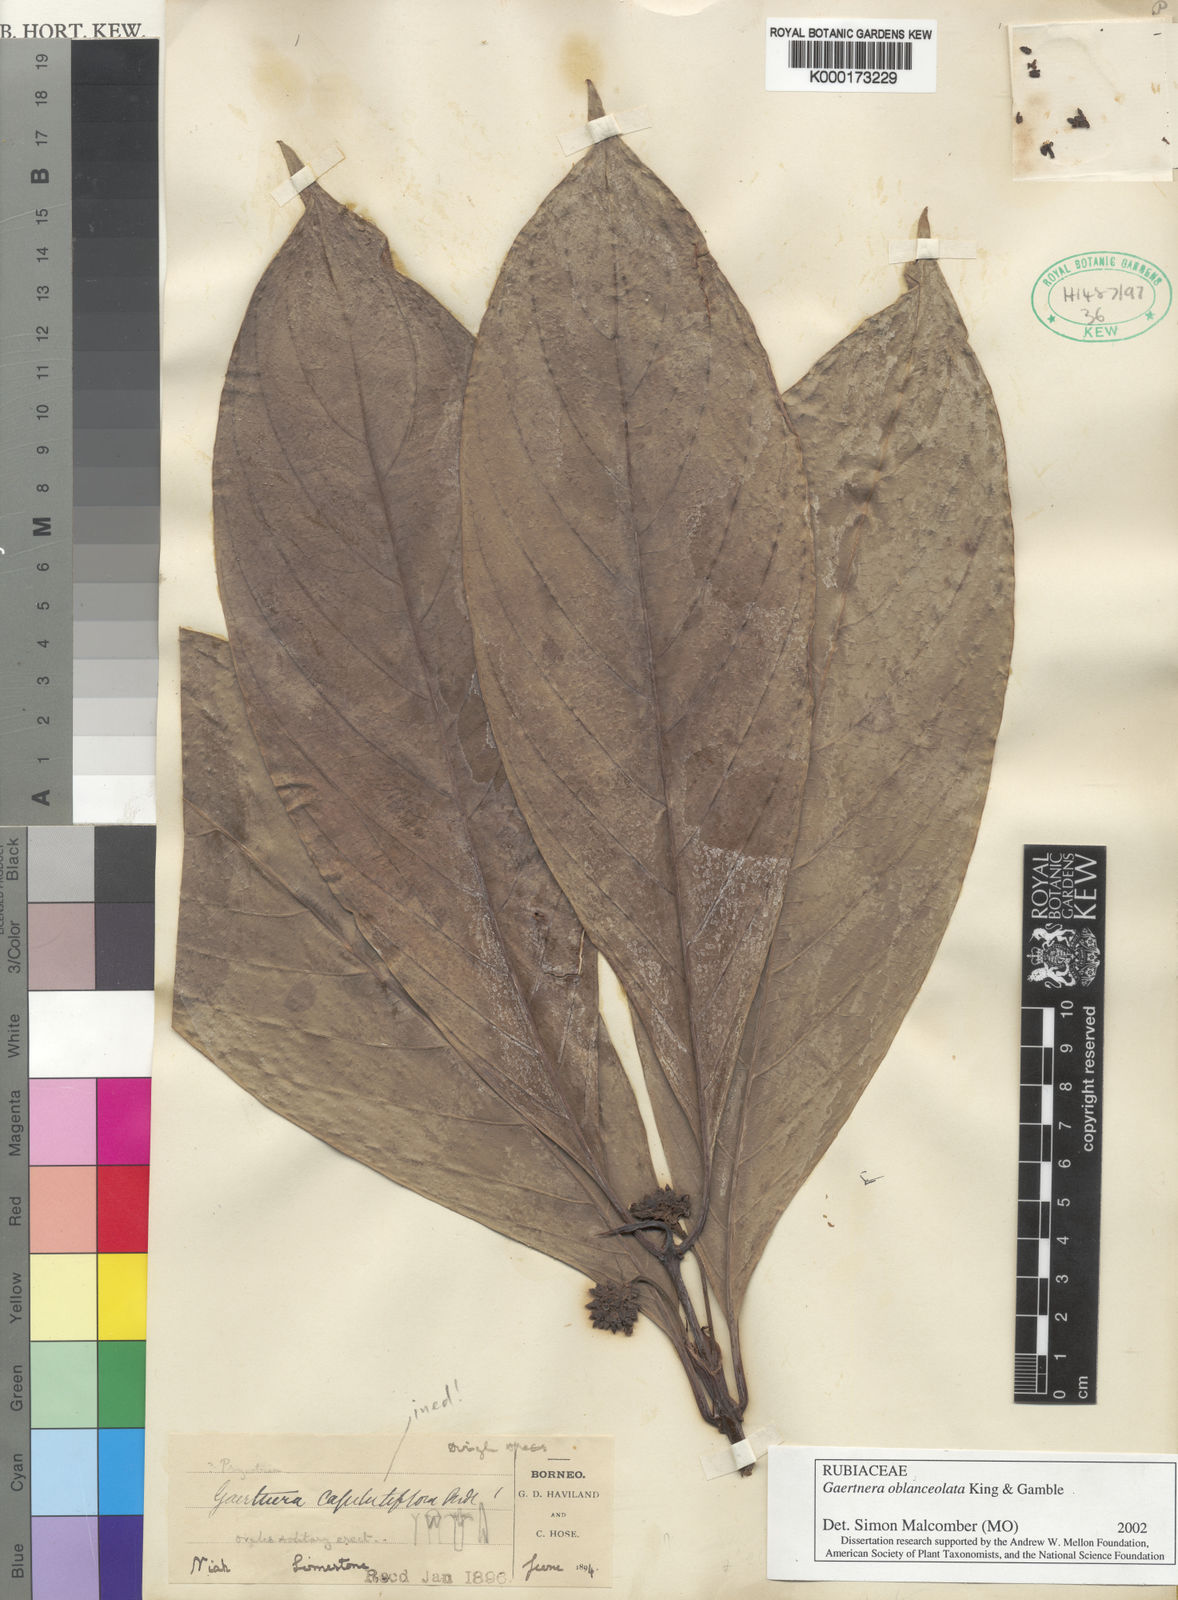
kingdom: Plantae
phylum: Tracheophyta
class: Magnoliopsida
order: Gentianales
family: Rubiaceae
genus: Gaertnera
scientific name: Gaertnera oblanceolata
